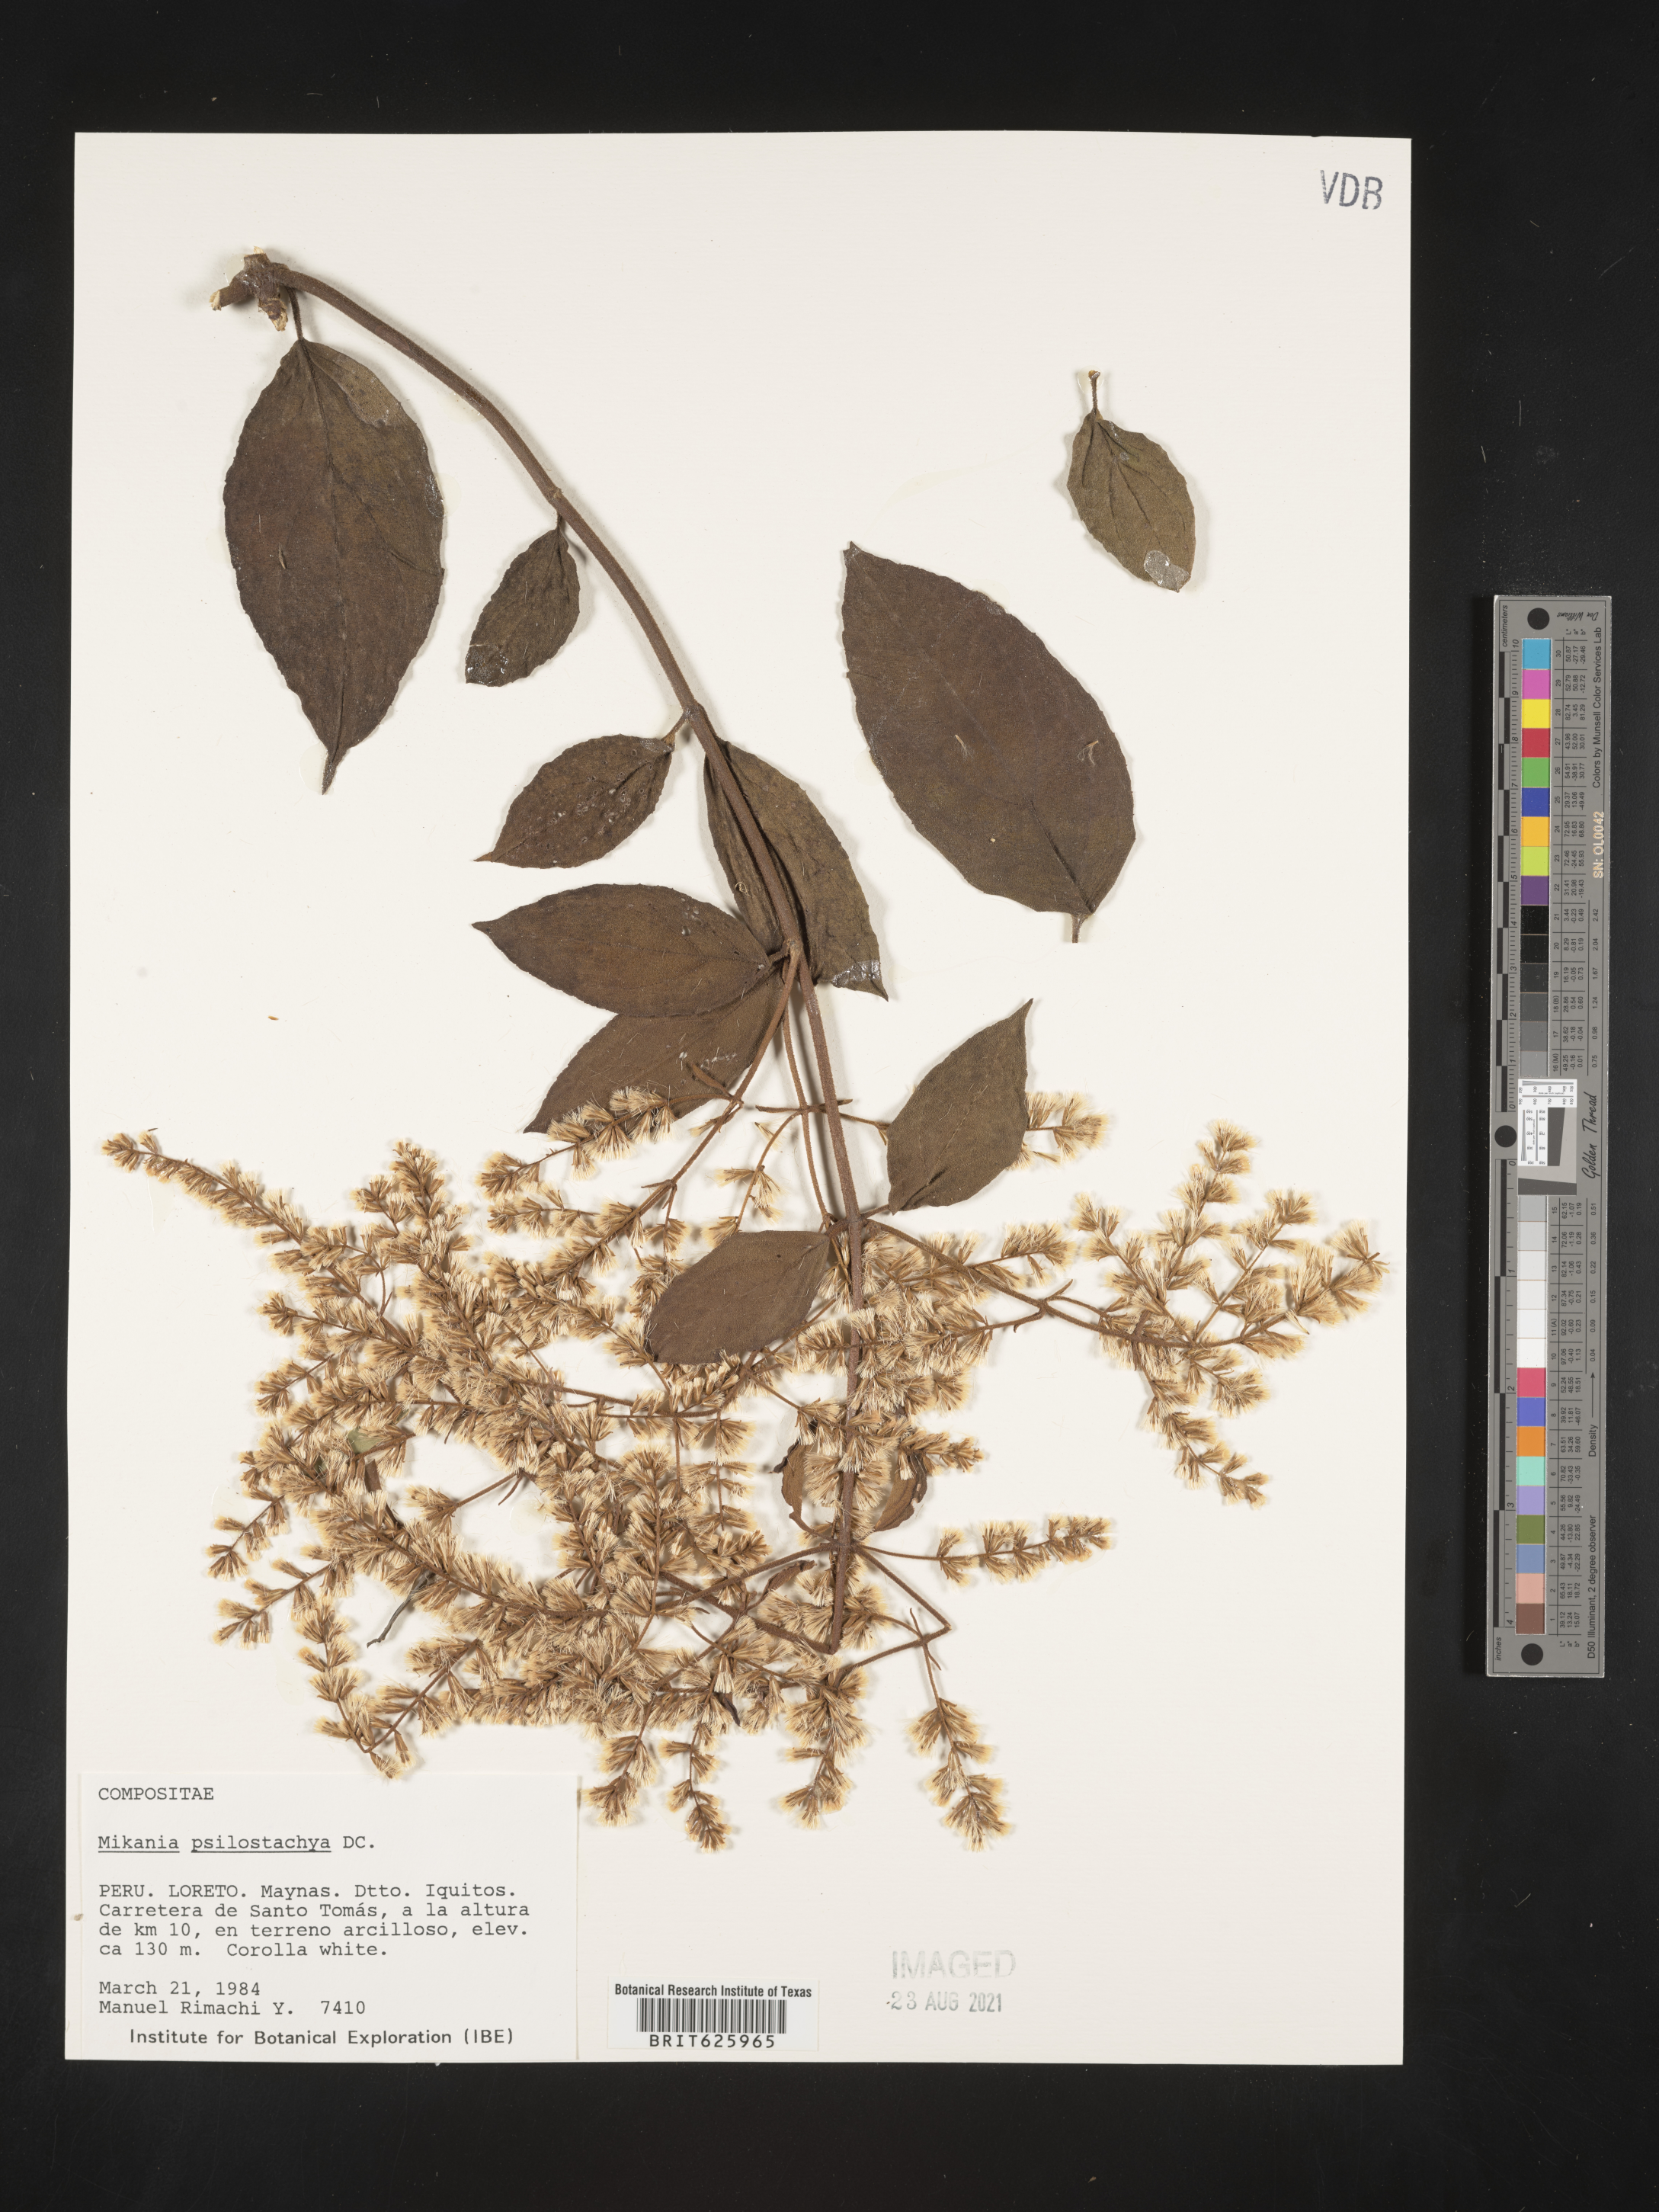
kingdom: Plantae
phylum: Tracheophyta
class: Magnoliopsida
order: Asterales
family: Asteraceae
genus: Mikania
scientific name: Mikania psilostachya
